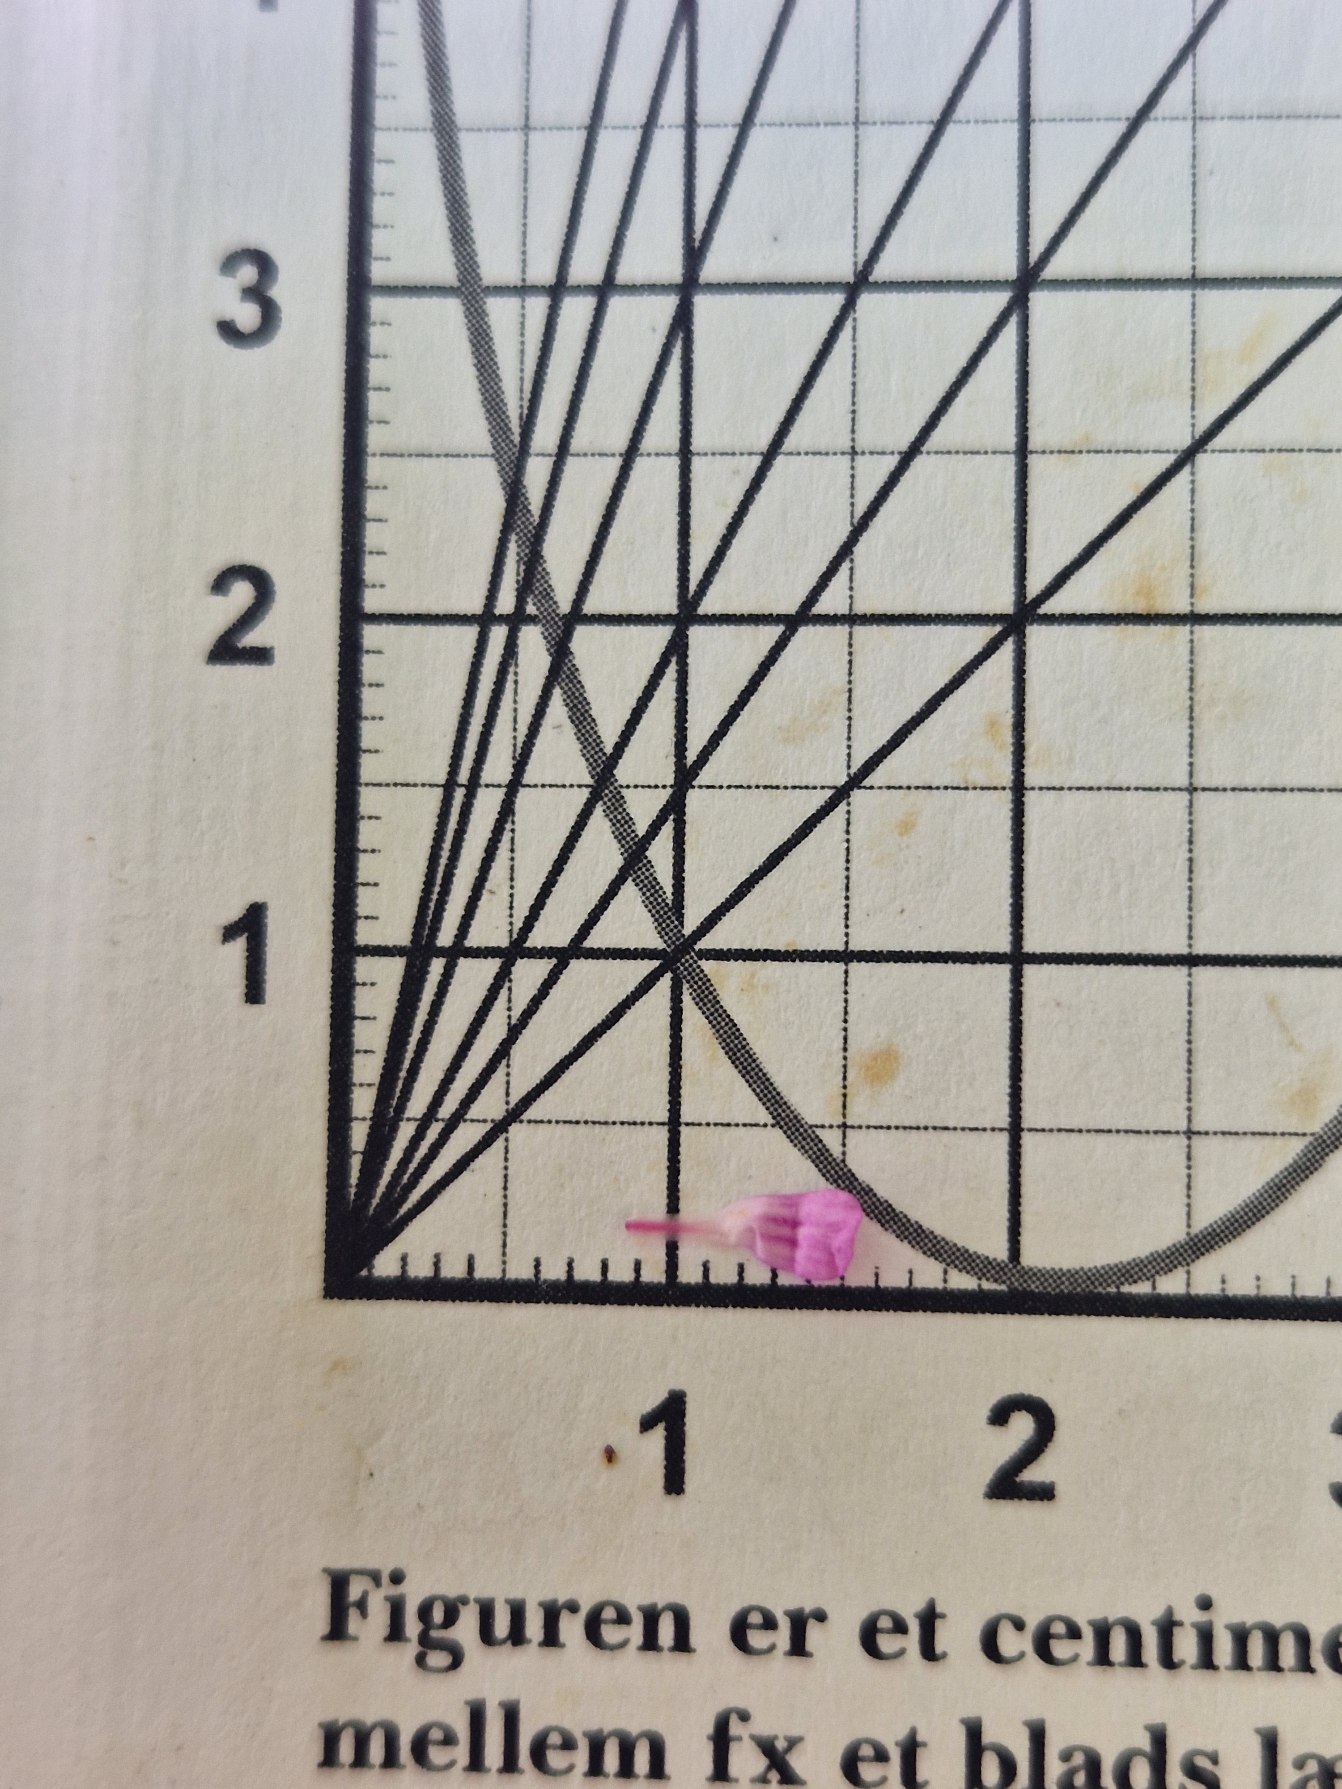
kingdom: Plantae
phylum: Tracheophyta
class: Magnoliopsida
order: Geraniales
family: Geraniaceae
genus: Geranium
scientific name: Geranium robertianum
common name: Stinkende storkenæb
